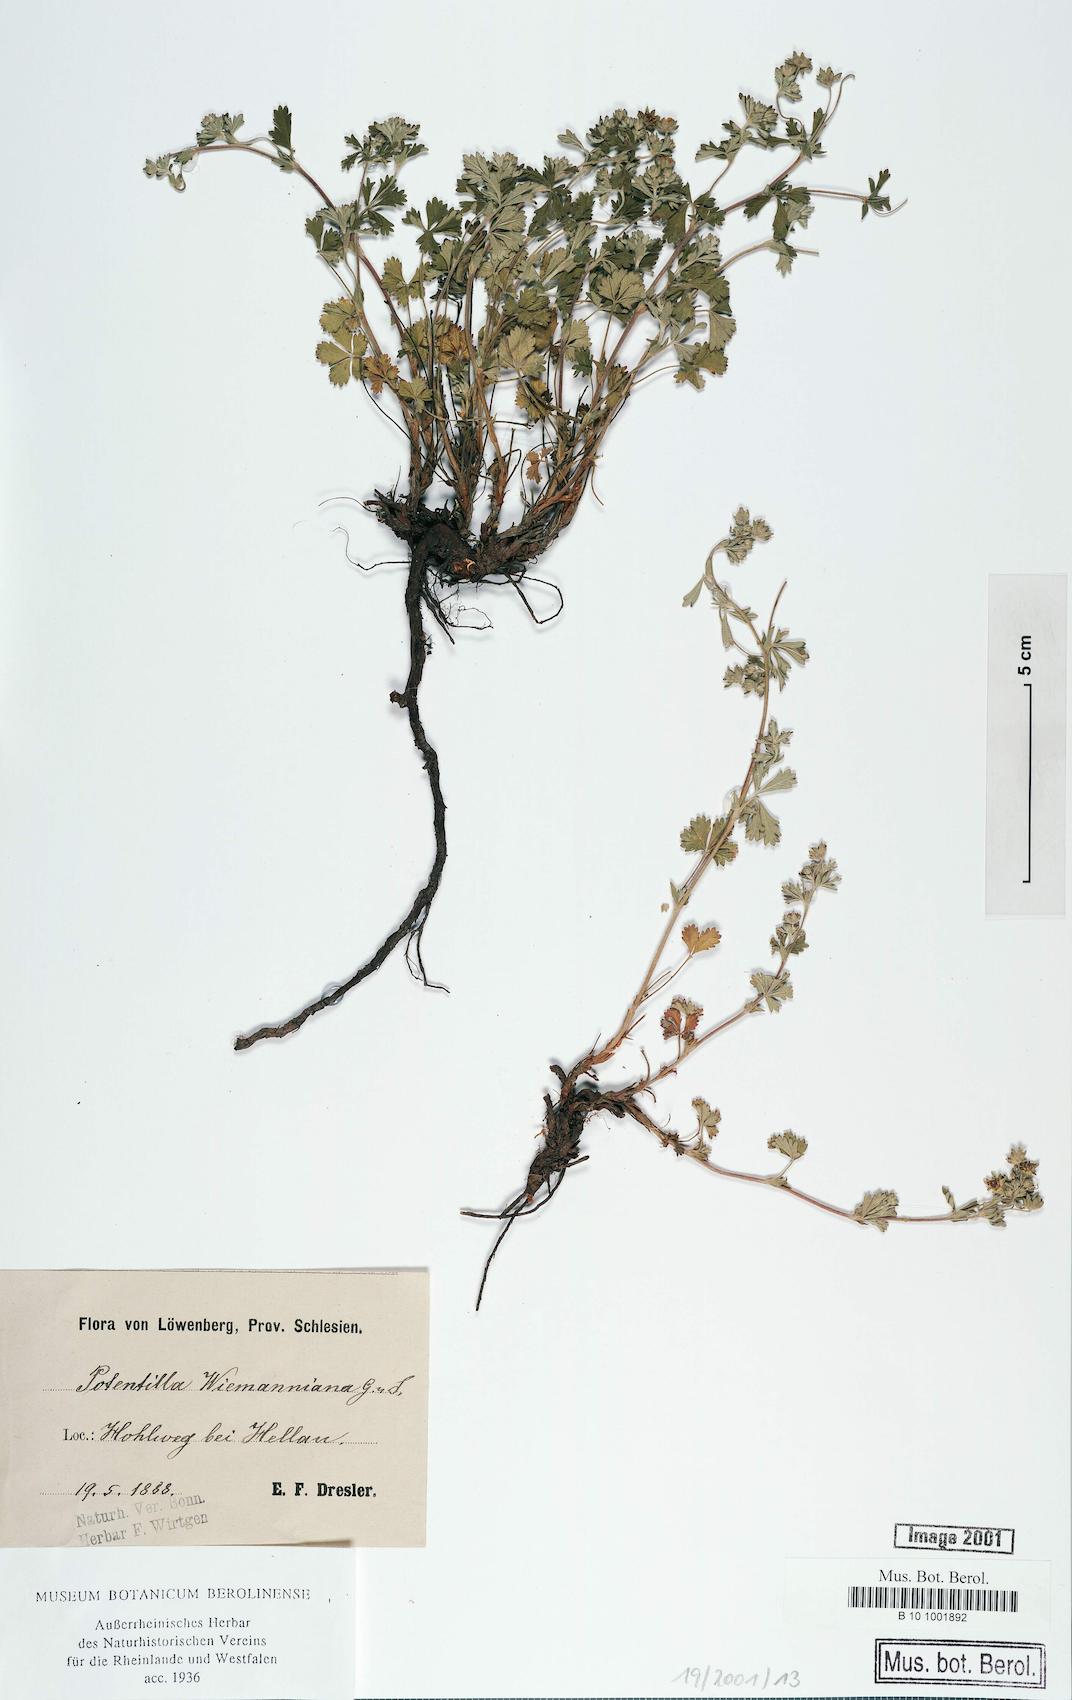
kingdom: Plantae
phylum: Tracheophyta
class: Magnoliopsida
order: Rosales
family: Rosaceae
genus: Potentilla
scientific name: Potentilla
